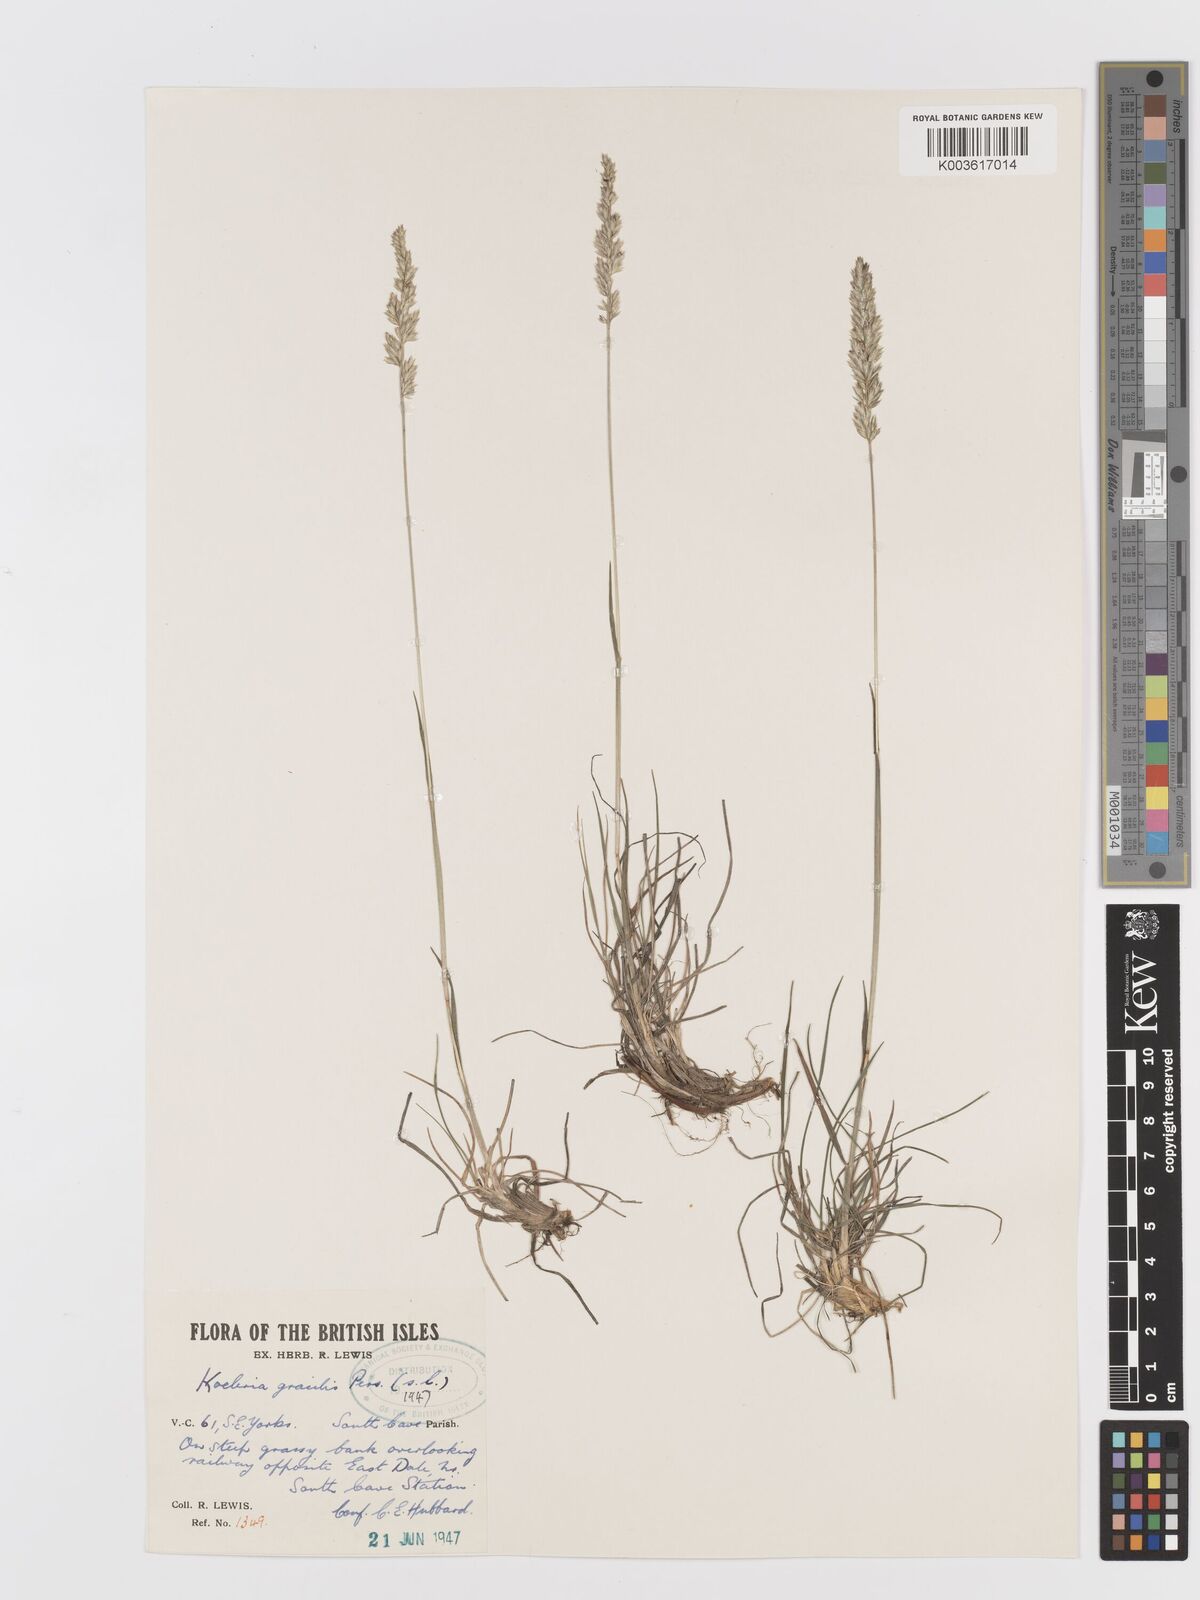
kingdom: Plantae
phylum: Tracheophyta
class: Liliopsida
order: Poales
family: Poaceae
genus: Koeleria
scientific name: Koeleria nitidula
